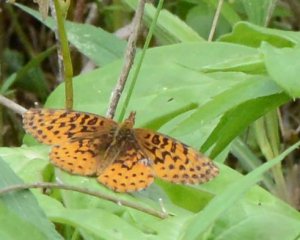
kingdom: Animalia
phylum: Arthropoda
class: Insecta
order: Lepidoptera
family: Nymphalidae
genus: Clossiana
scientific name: Clossiana toddi
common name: Meadow Fritillary
